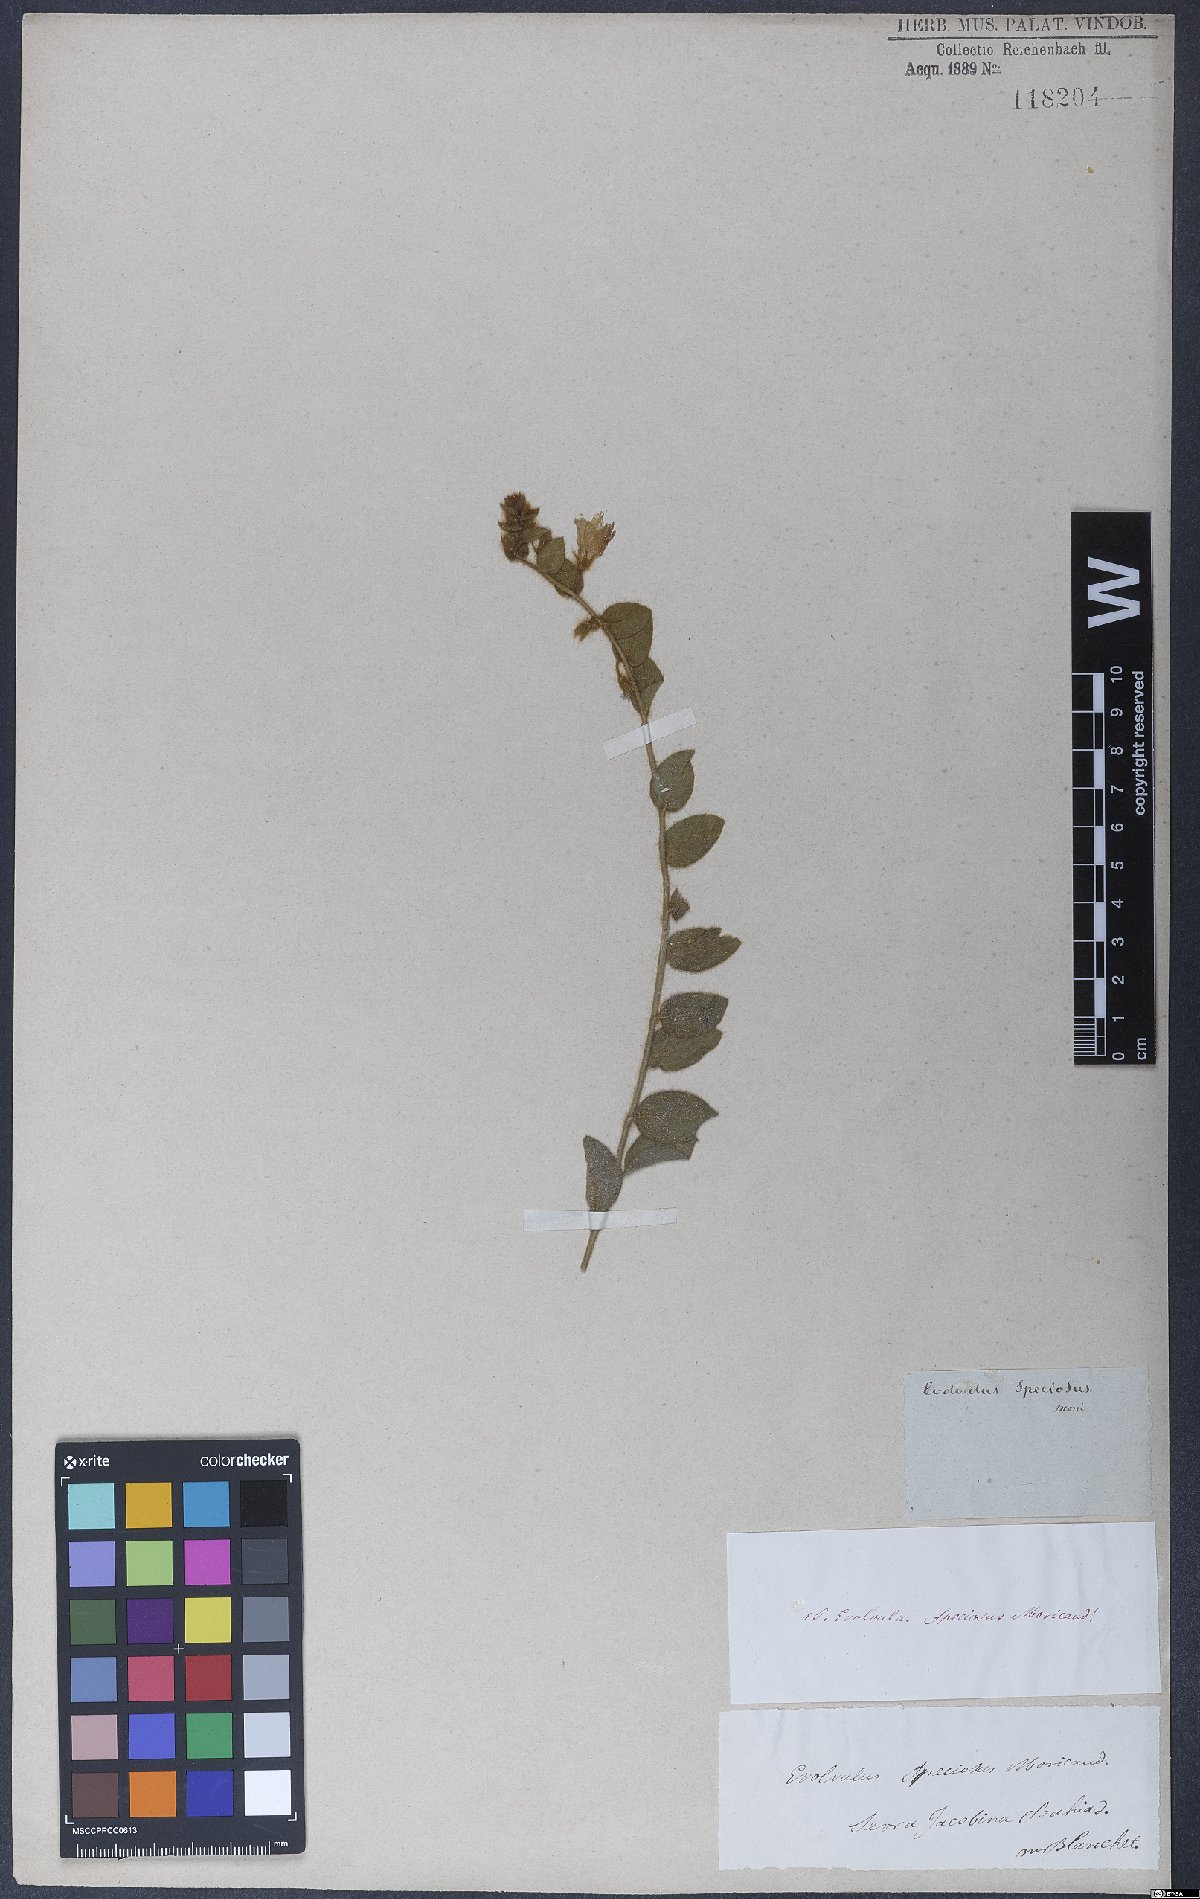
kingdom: Plantae
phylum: Tracheophyta
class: Magnoliopsida
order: Solanales
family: Convolvulaceae
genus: Evolvulus
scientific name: Evolvulus speciosus
